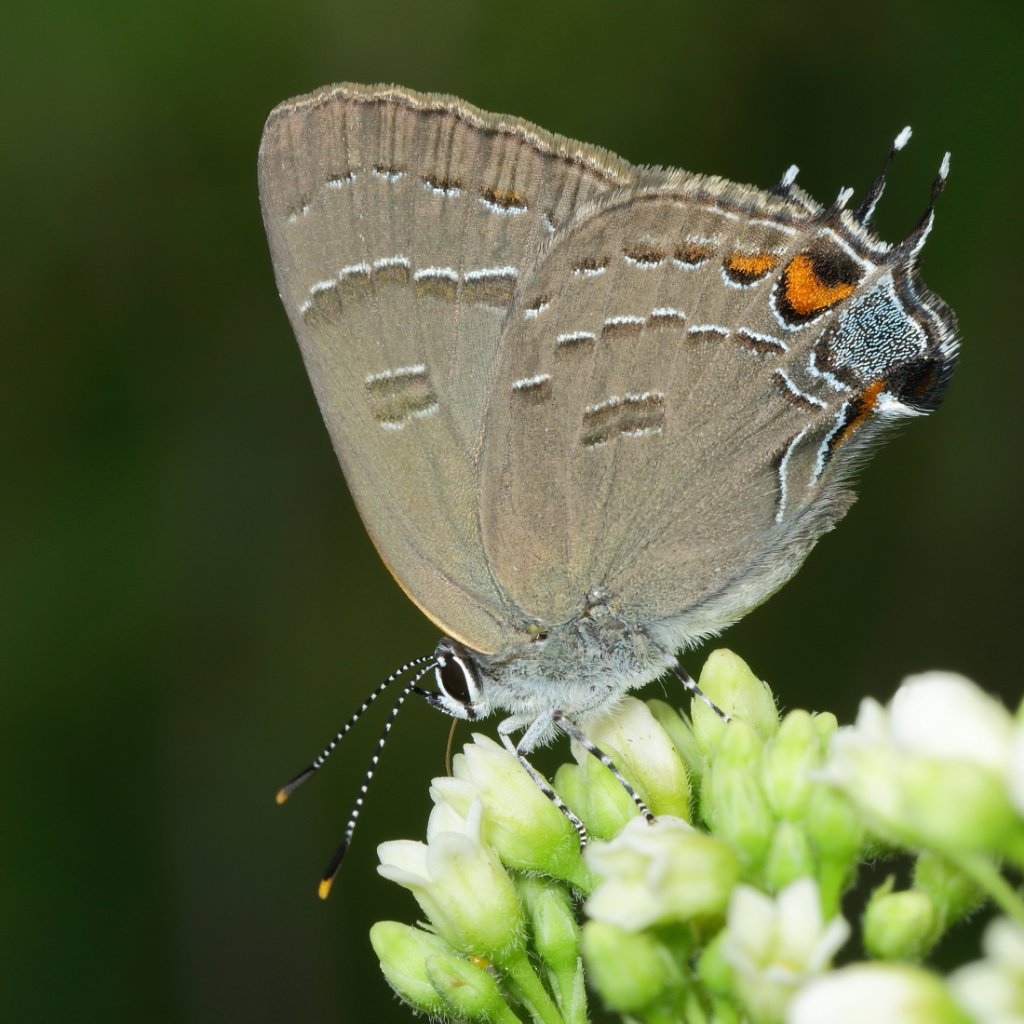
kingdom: Animalia
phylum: Arthropoda
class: Insecta
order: Lepidoptera
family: Lycaenidae
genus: Satyrium
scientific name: Satyrium calanus
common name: Banded Hairstreak
